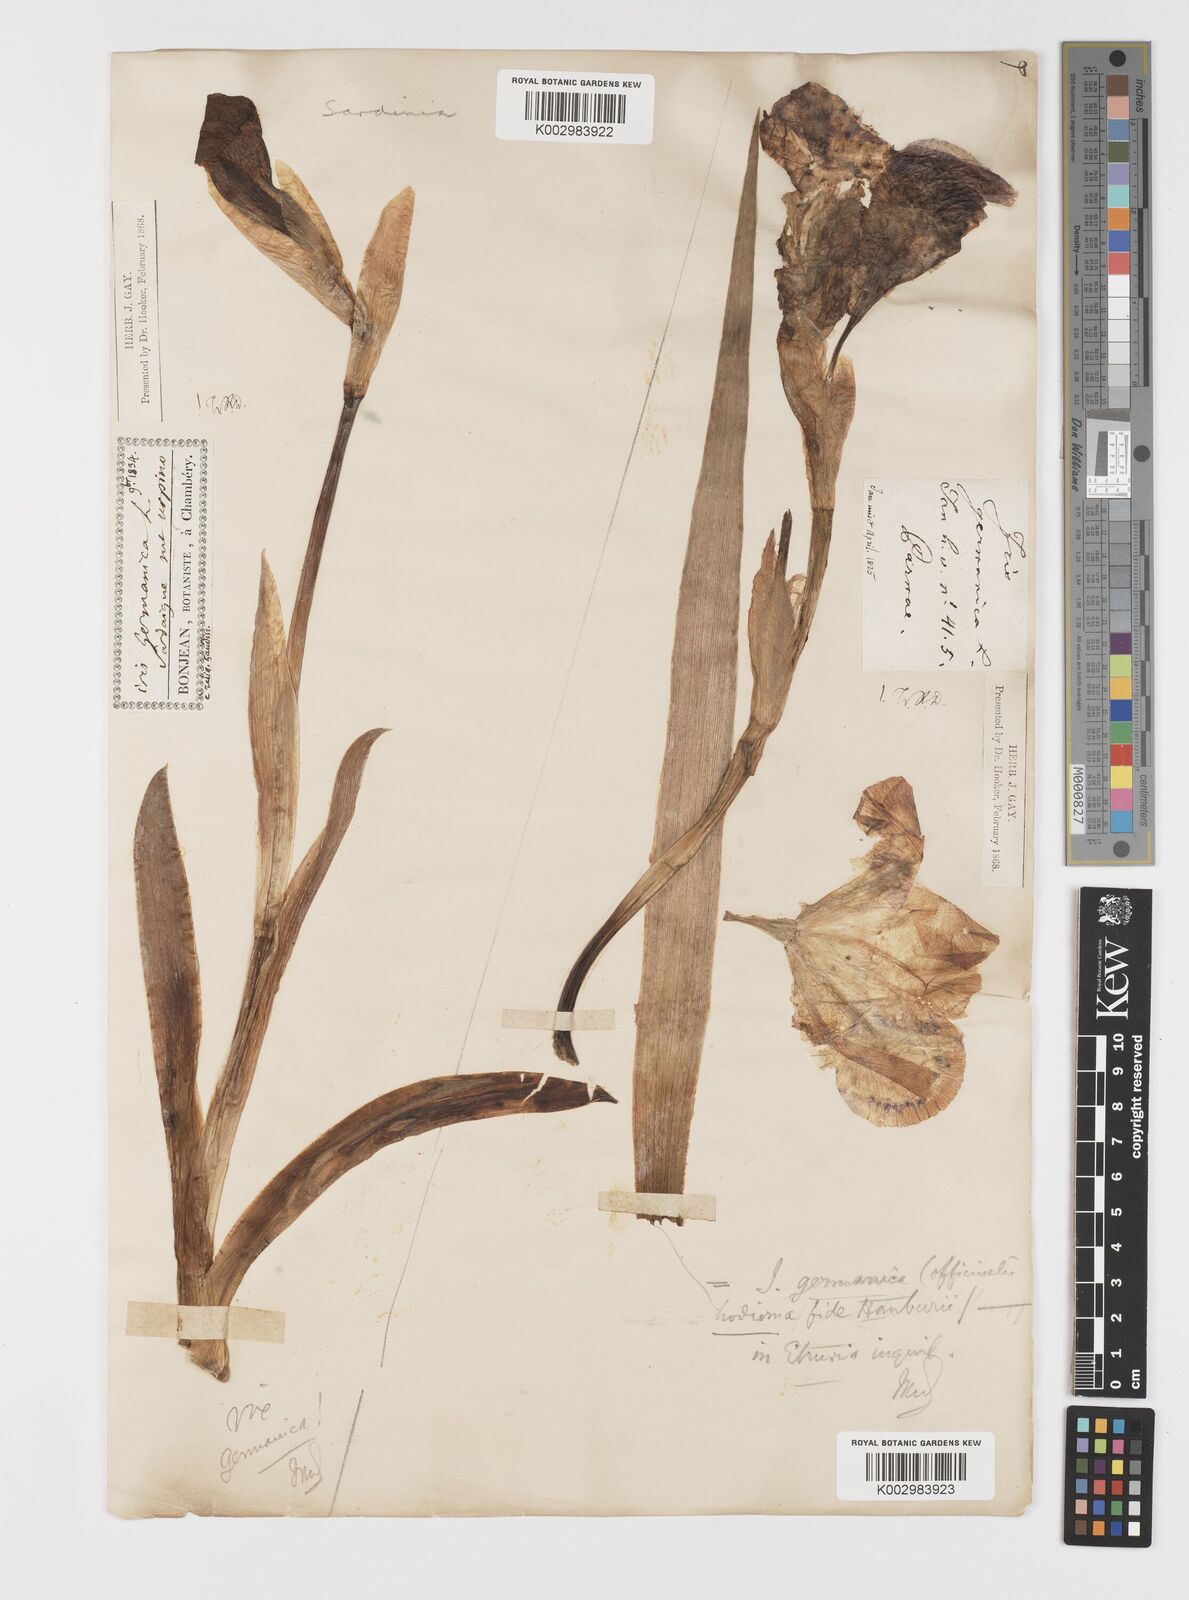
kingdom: Plantae
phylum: Tracheophyta
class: Liliopsida
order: Asparagales
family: Iridaceae
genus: Iris
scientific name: Iris germanica
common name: German iris
